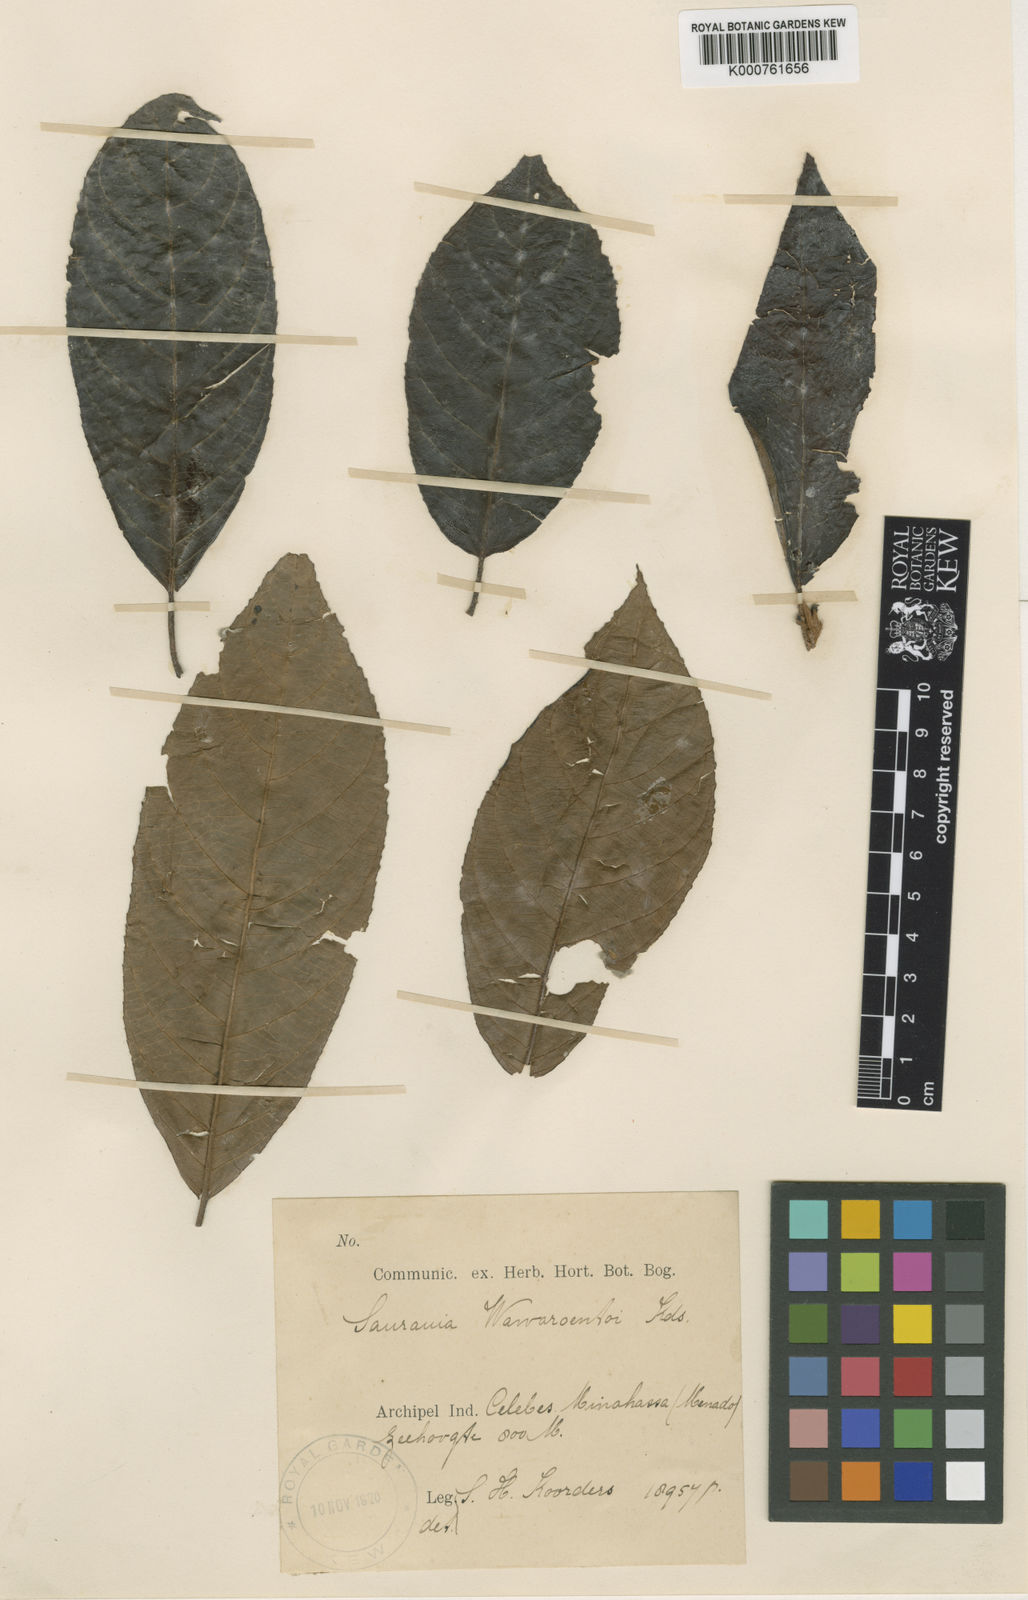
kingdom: Plantae
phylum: Tracheophyta
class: Magnoliopsida
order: Ericales
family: Actinidiaceae
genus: Saurauia
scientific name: Saurauia waworoentii
